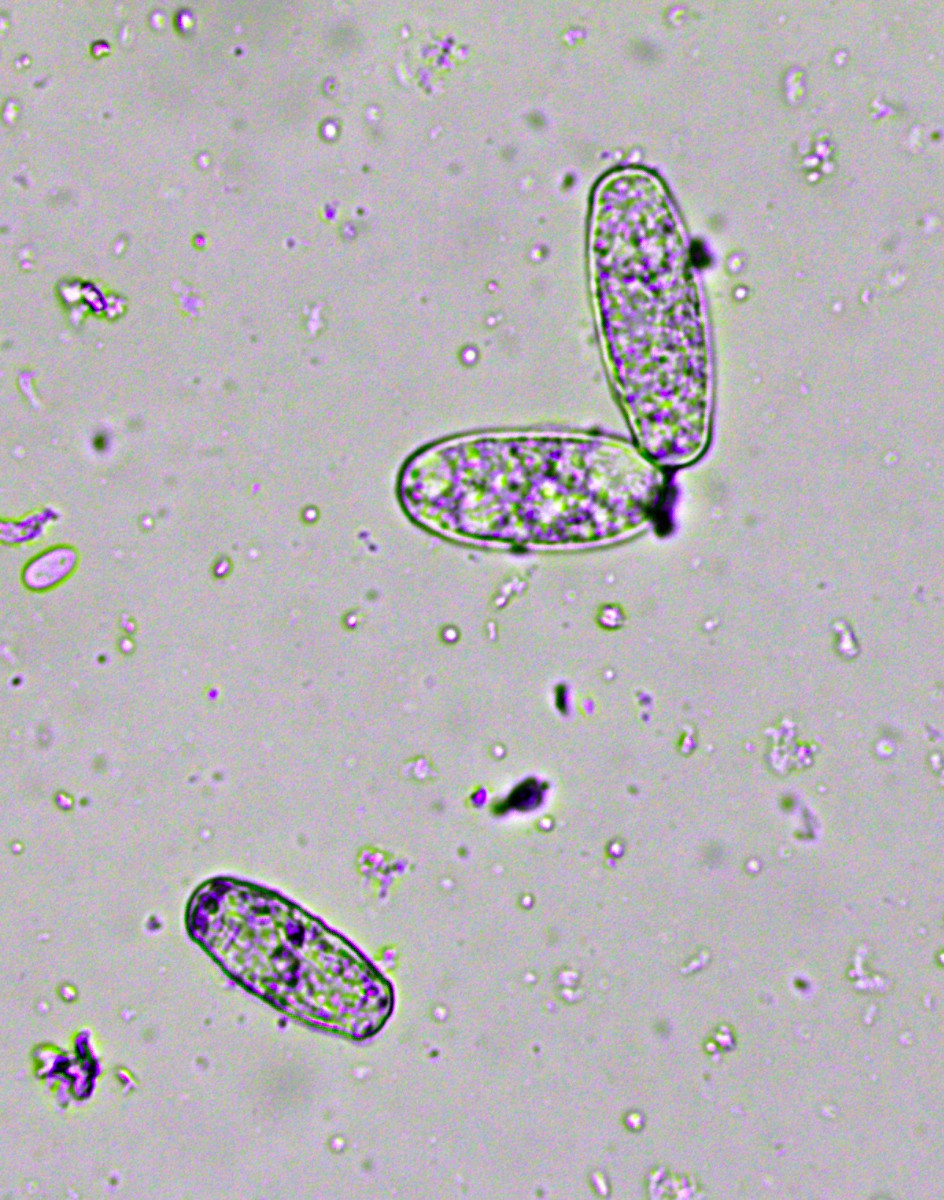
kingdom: Fungi
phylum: Ascomycota
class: Leotiomycetes
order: Helotiales
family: Erysiphaceae
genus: Erysiphe
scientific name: Erysiphe arcuata
